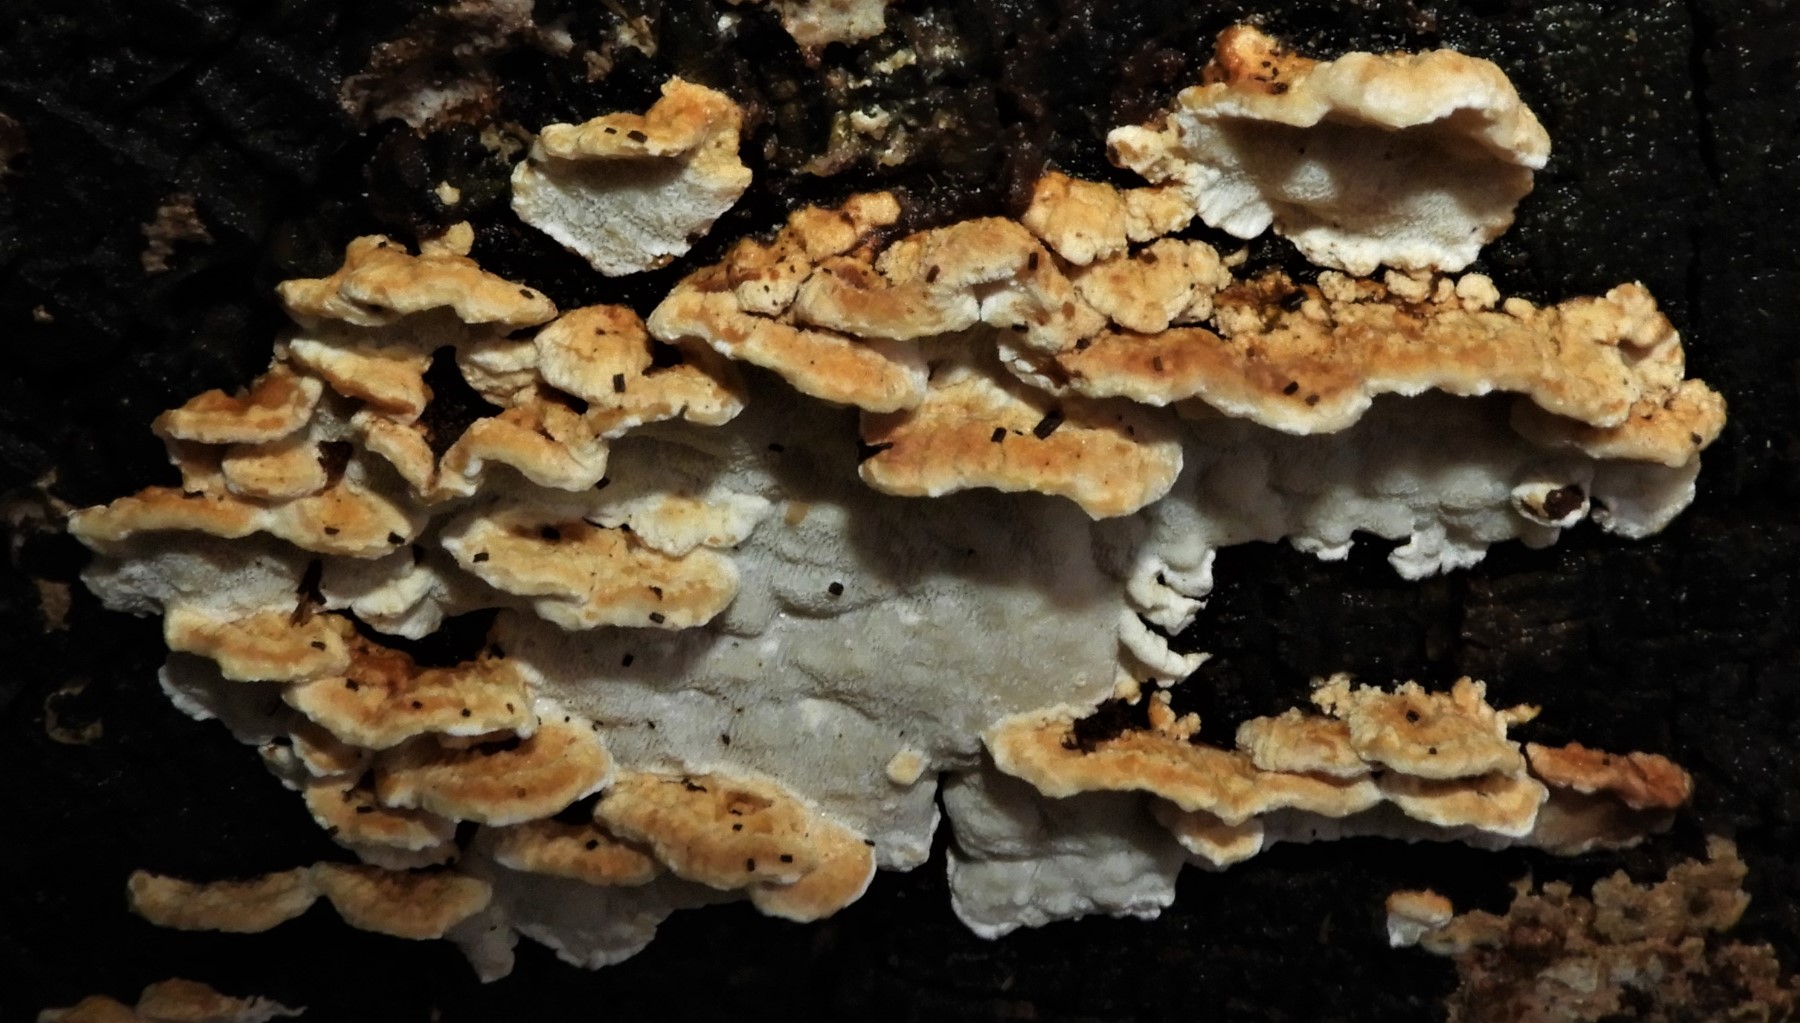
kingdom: Fungi
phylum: Basidiomycota
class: Agaricomycetes
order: Russulales
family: Stereaceae
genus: Stereum
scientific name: Stereum hirsutum
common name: håret lædersvamp
